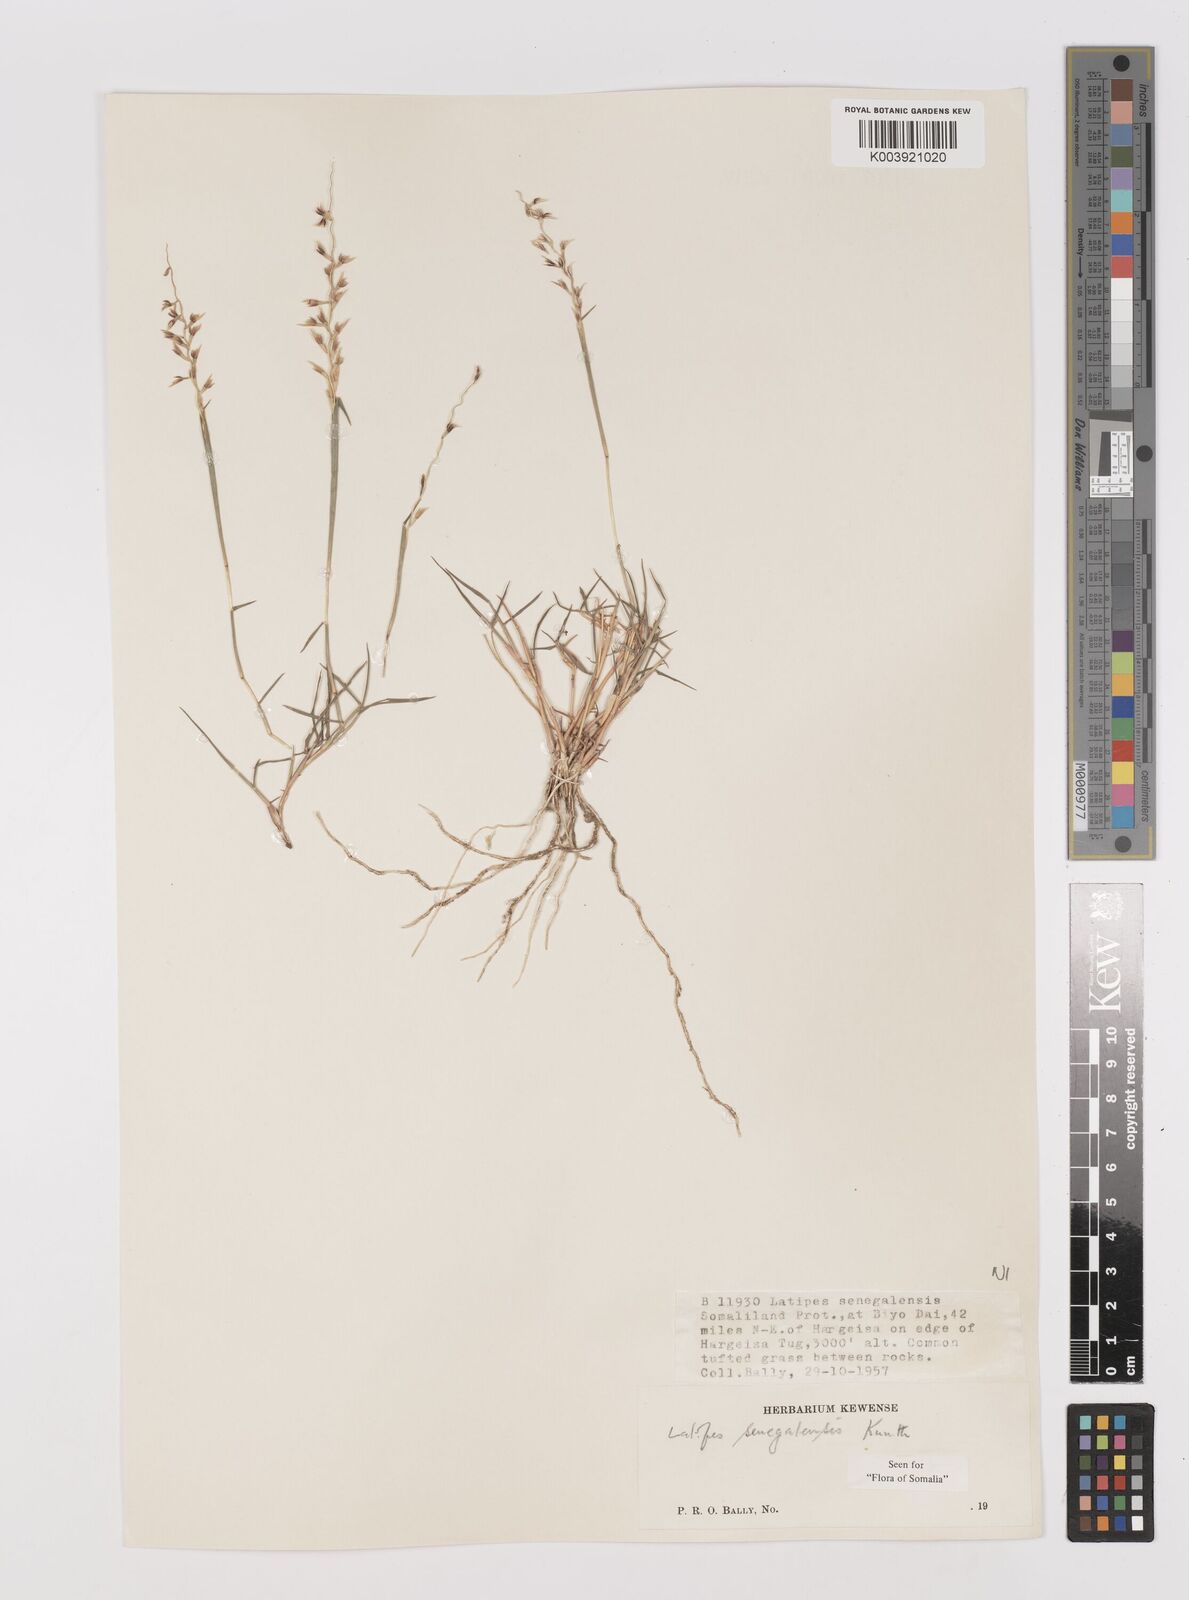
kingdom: Plantae
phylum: Tracheophyta
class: Liliopsida
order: Poales
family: Poaceae
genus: Leptothrium
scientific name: Leptothrium senegalense
